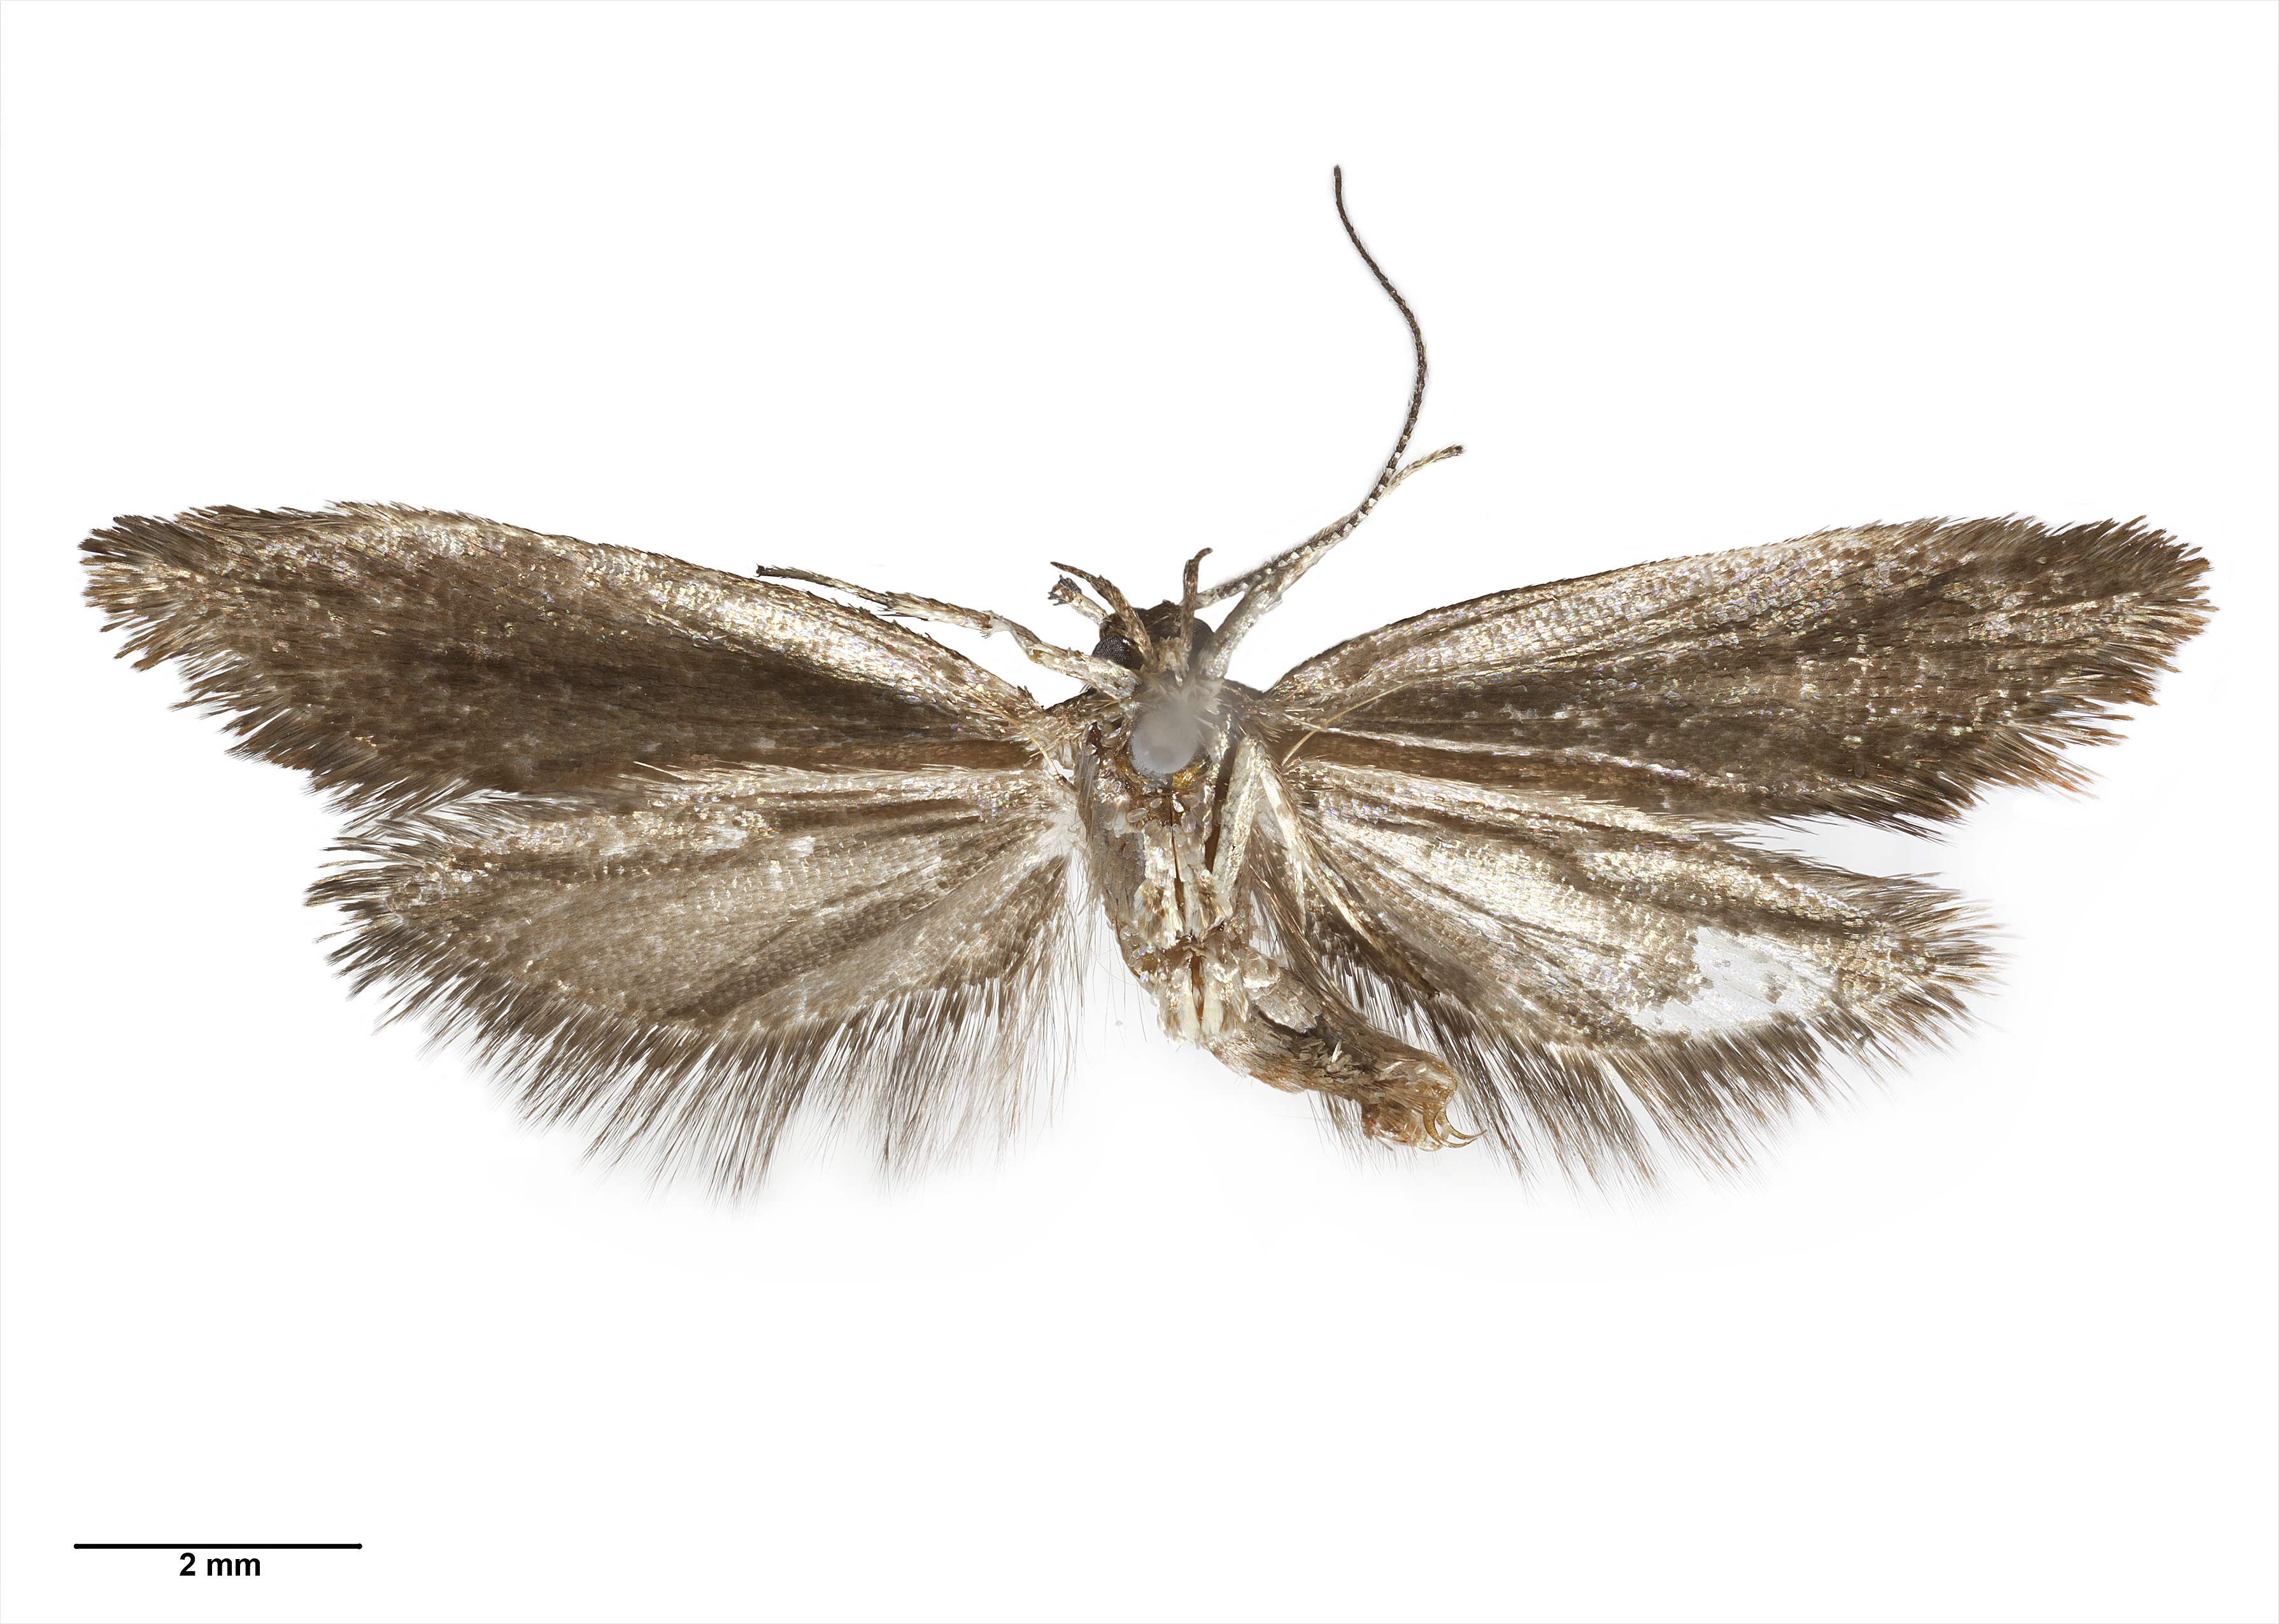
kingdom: Animalia
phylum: Arthropoda
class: Insecta
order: Lepidoptera
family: Oecophoridae
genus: Tingena
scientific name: Tingena laudata
